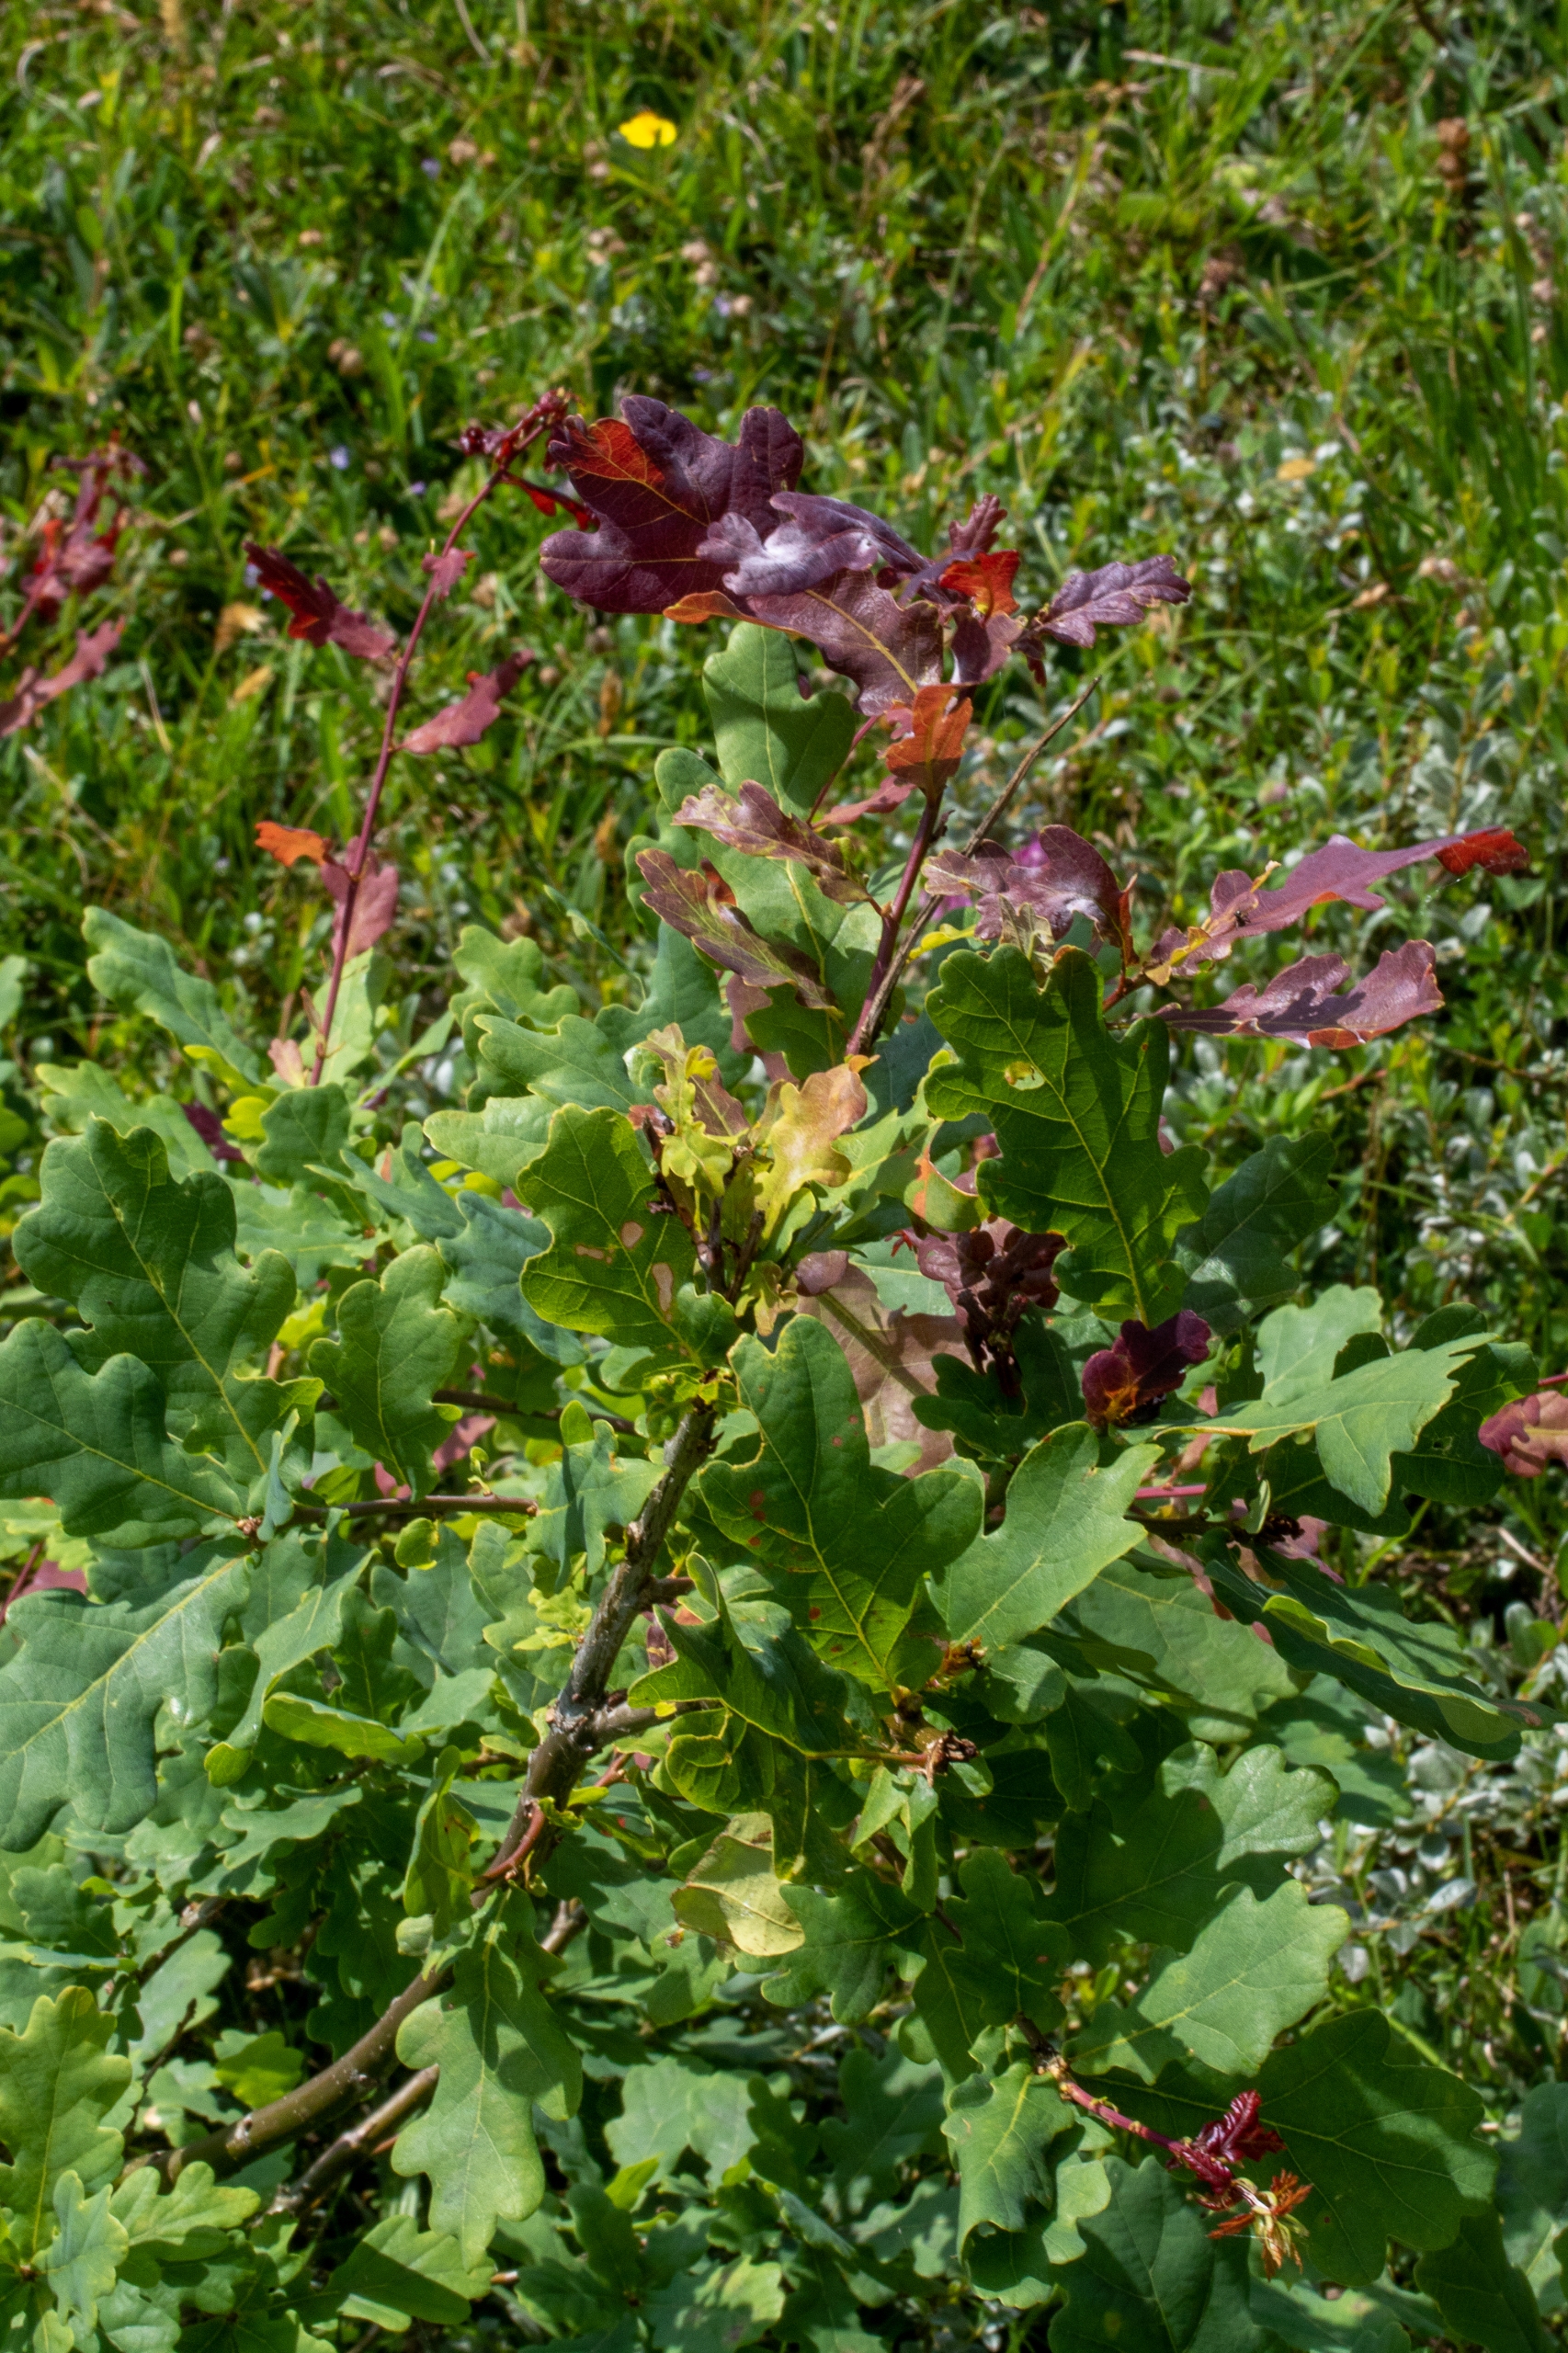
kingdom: Plantae
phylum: Tracheophyta
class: Magnoliopsida
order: Fagales
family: Fagaceae
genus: Quercus
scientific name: Quercus robur
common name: Stilk-eg/almindelig eg
